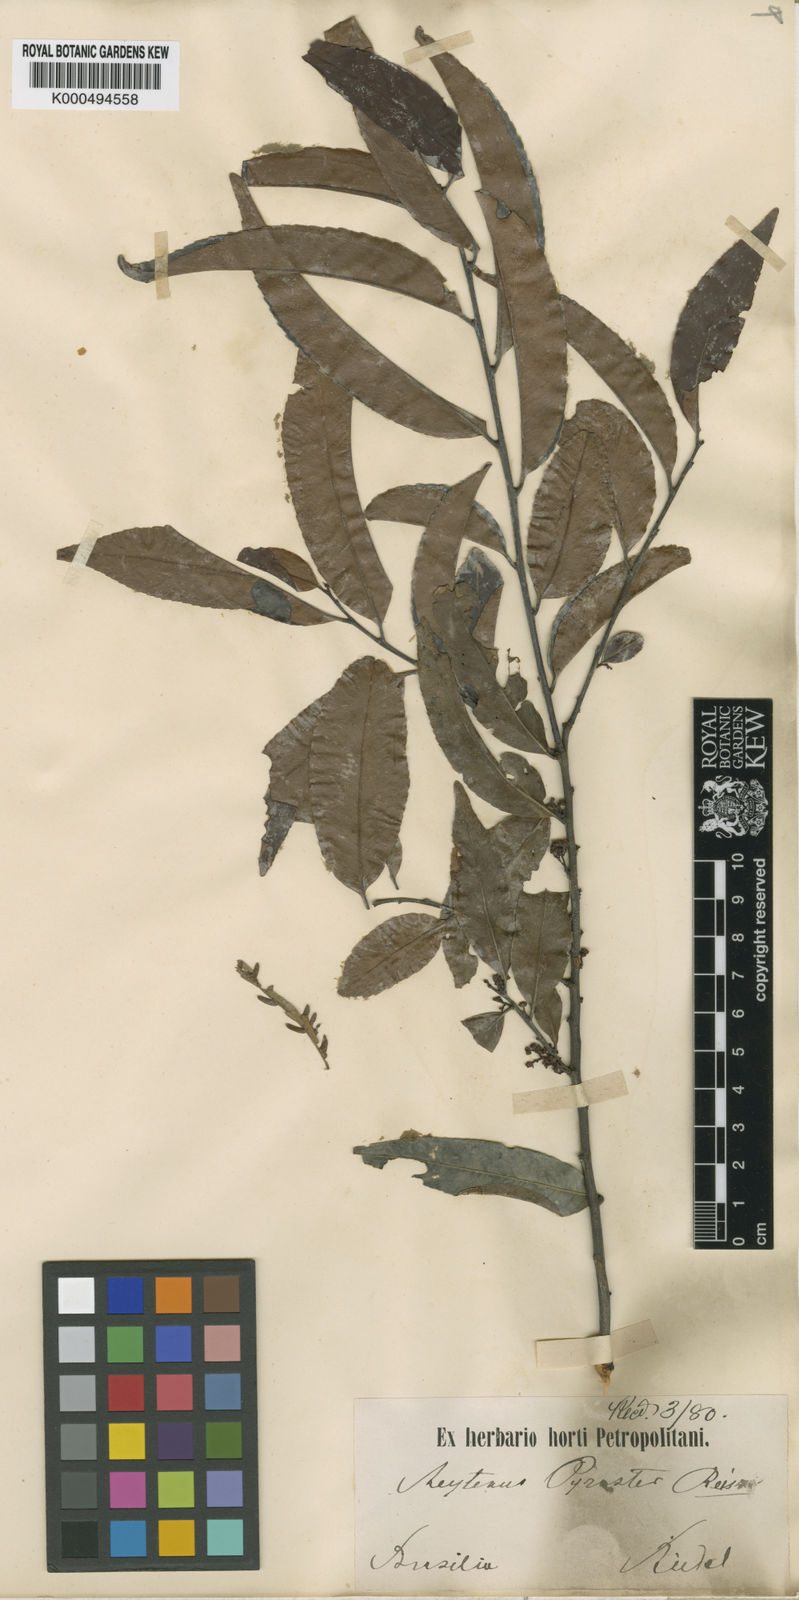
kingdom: Plantae
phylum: Tracheophyta
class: Magnoliopsida
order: Celastrales
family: Celastraceae
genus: Maytenus
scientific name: Maytenus
